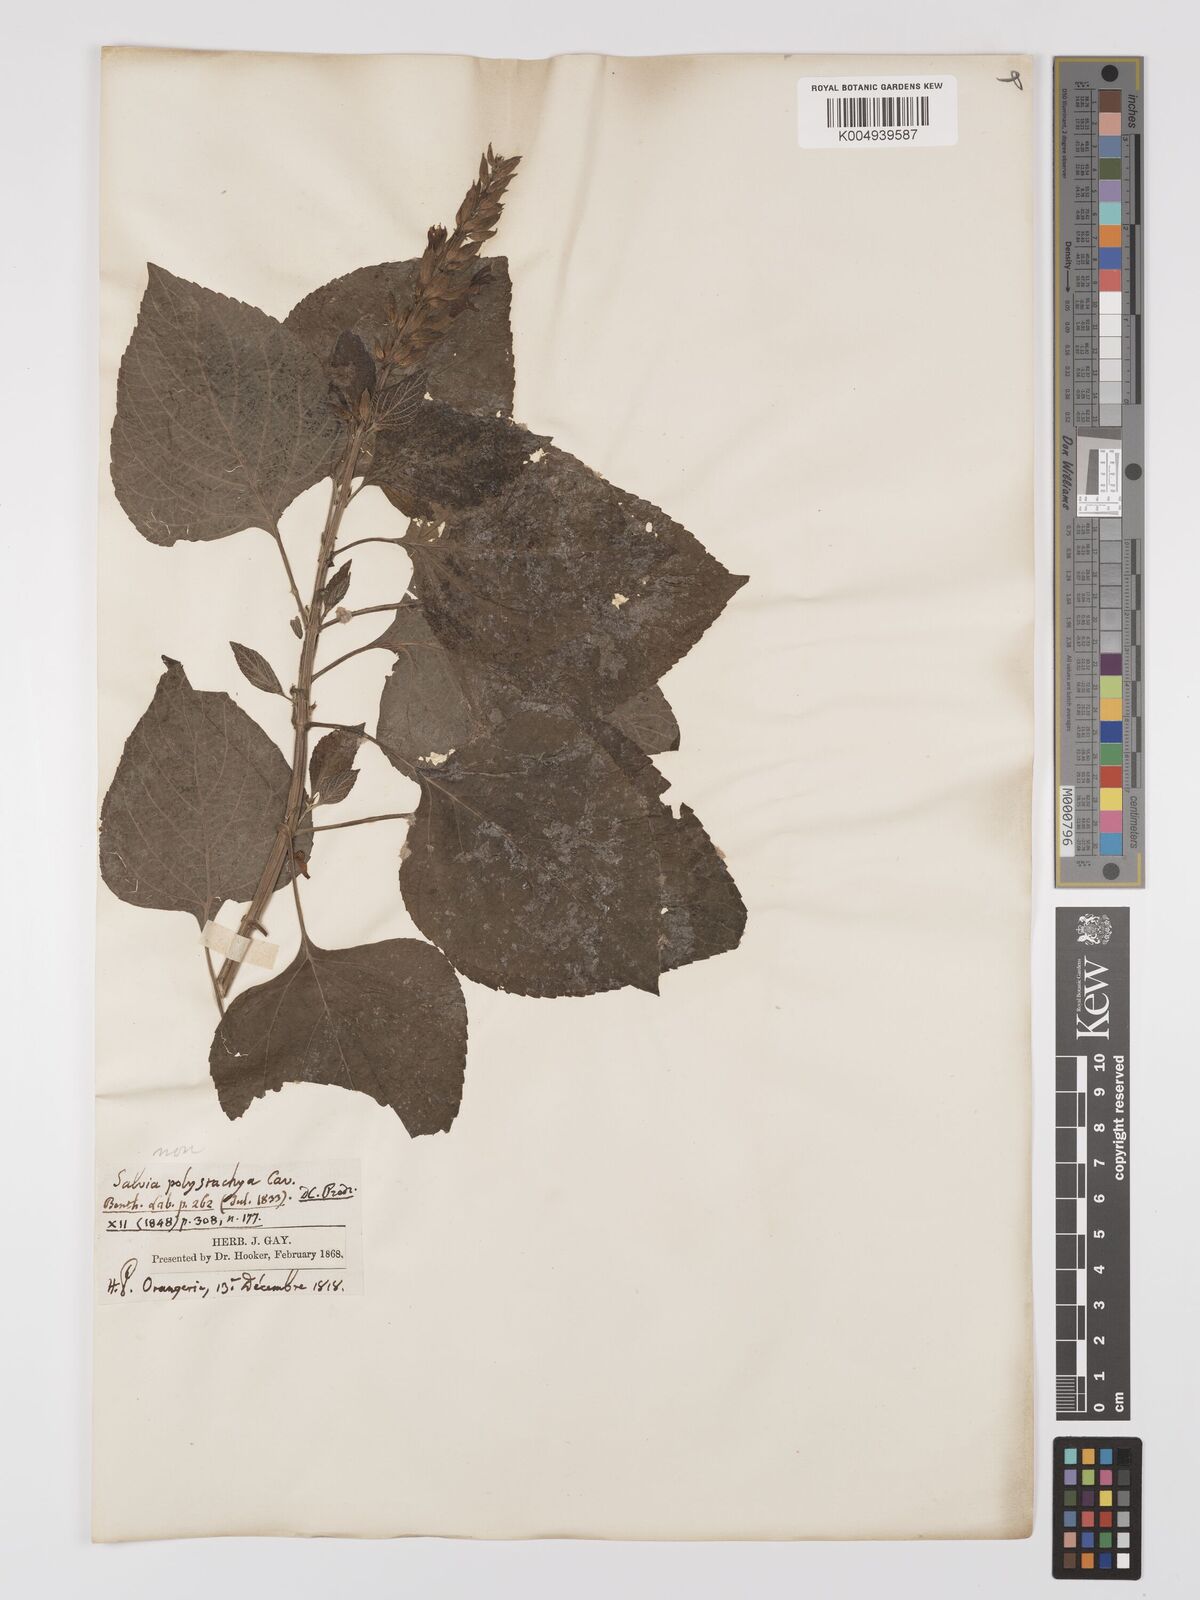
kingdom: Plantae
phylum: Tracheophyta
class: Magnoliopsida
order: Lamiales
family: Lamiaceae
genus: Salvia
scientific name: Salvia
